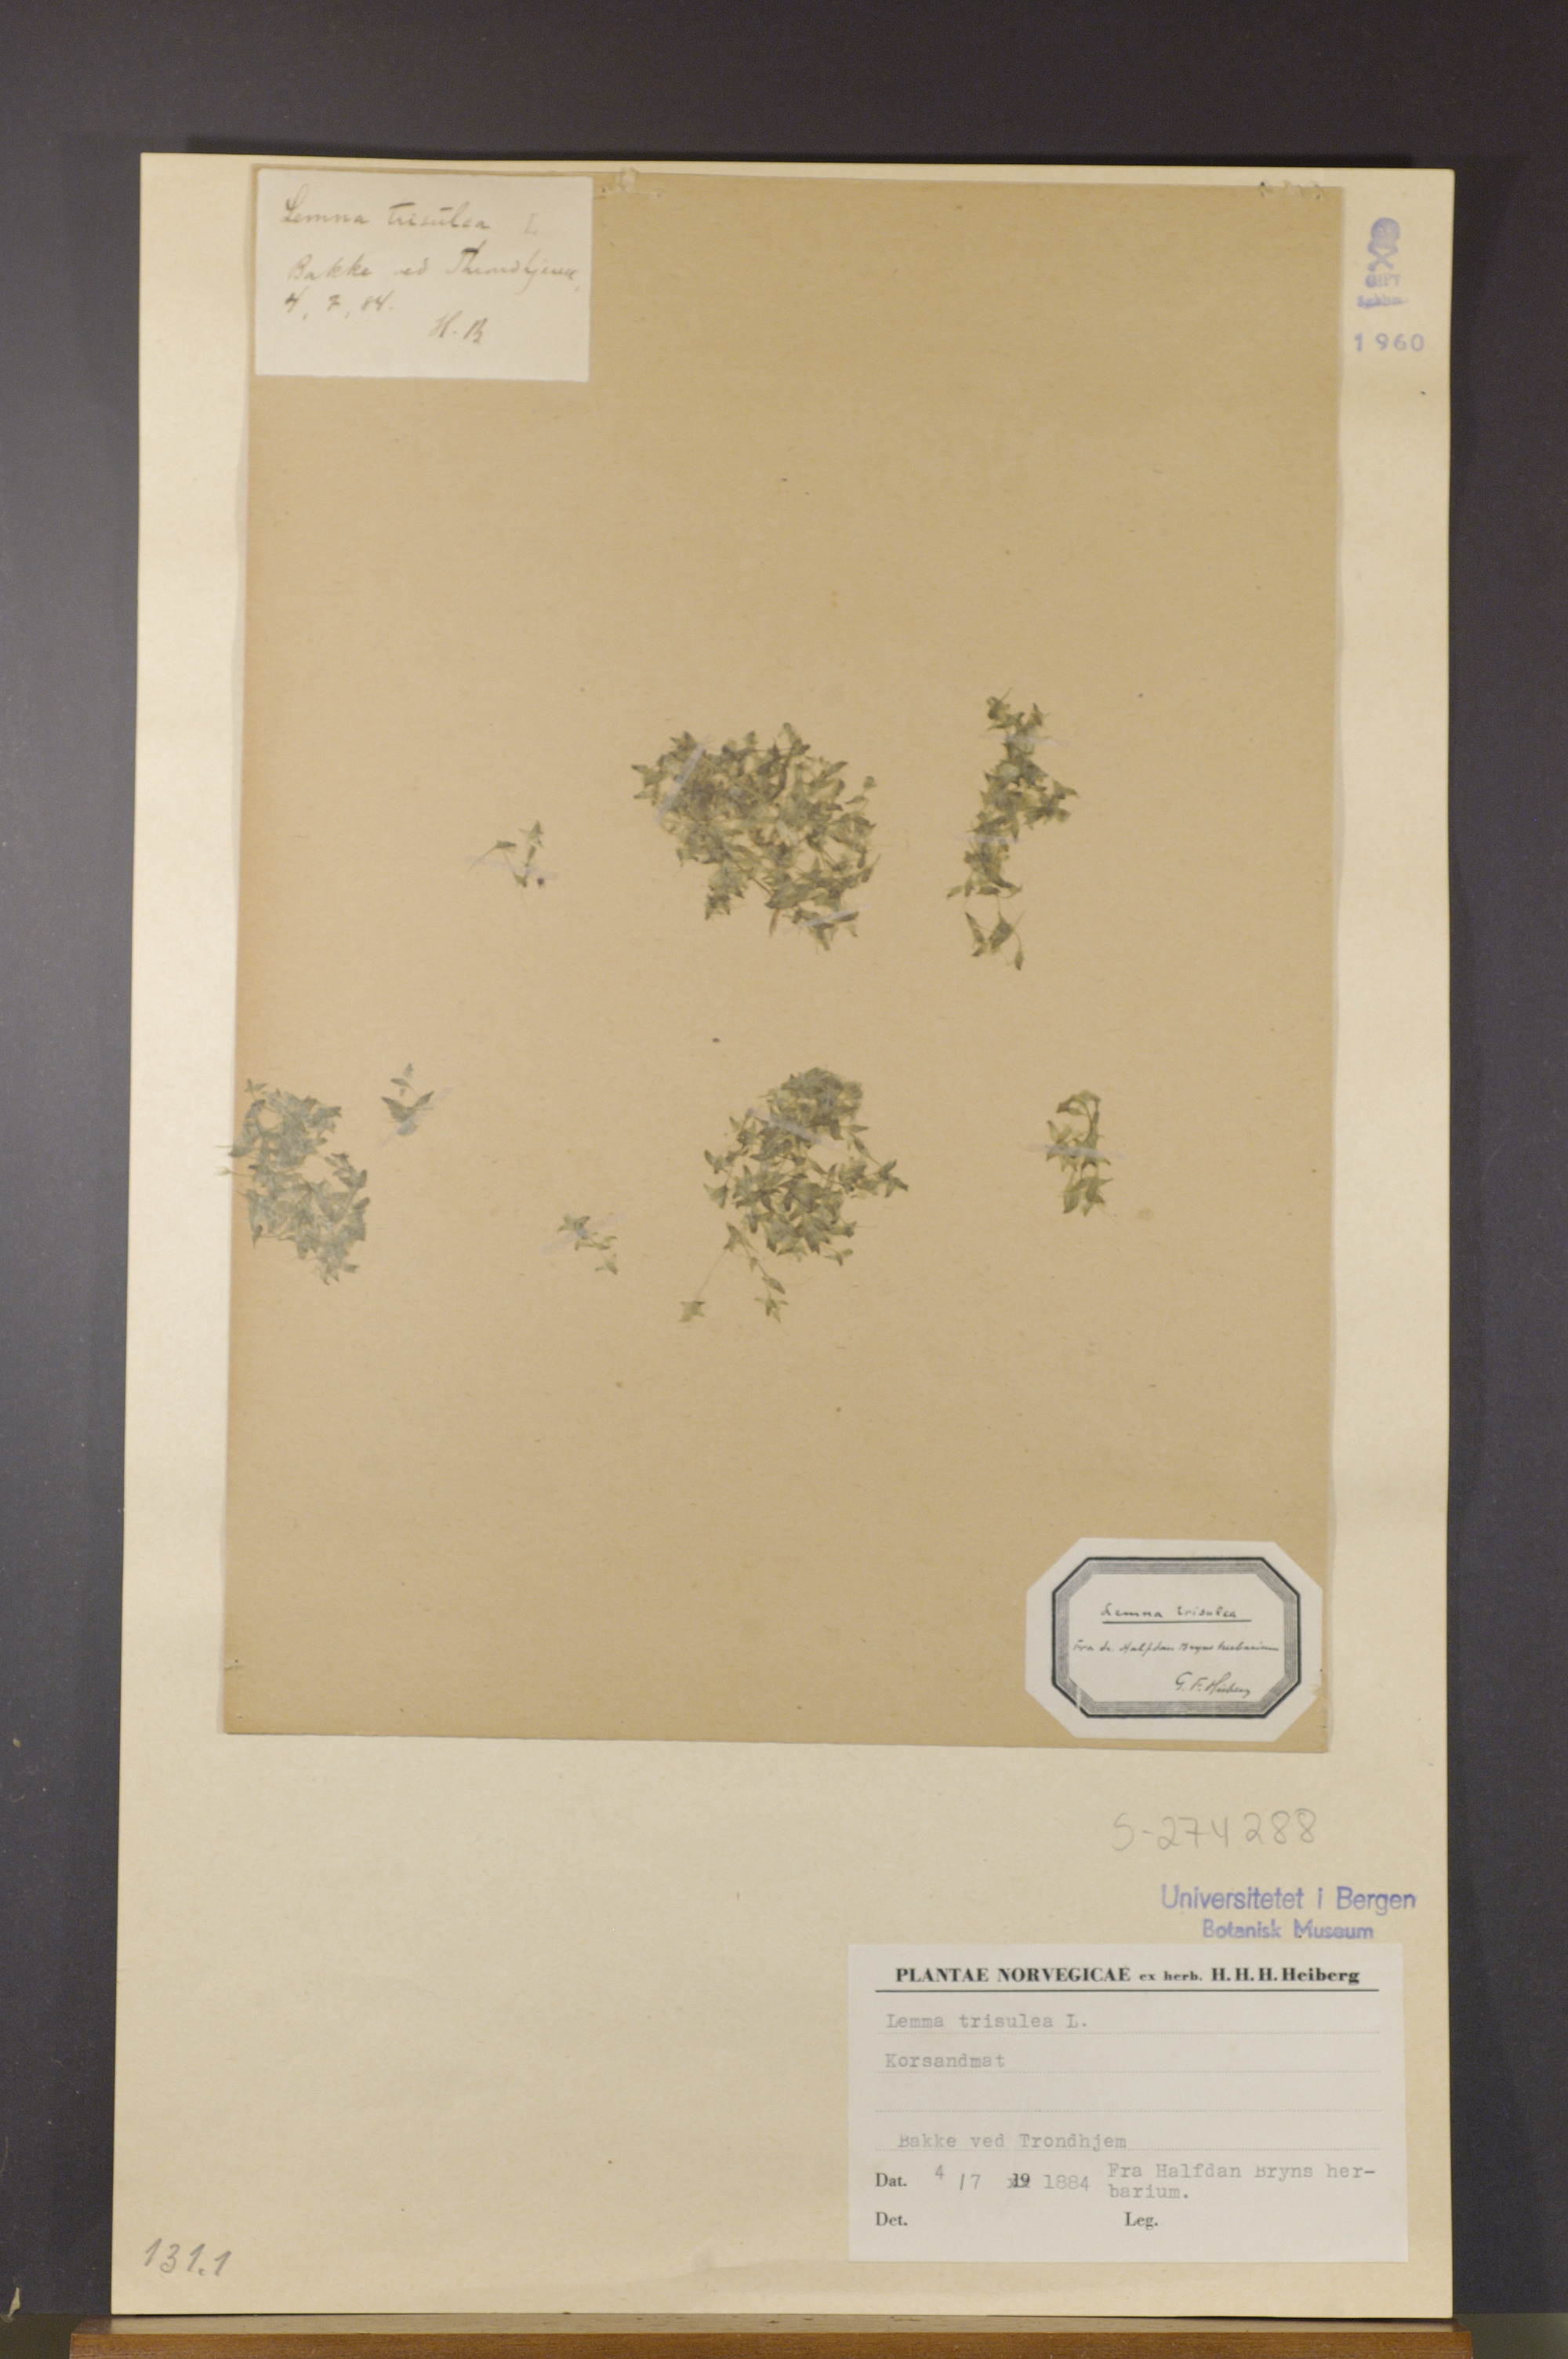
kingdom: Plantae
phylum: Tracheophyta
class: Liliopsida
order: Alismatales
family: Araceae
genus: Lemna
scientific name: Lemna trisulca
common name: Ivy-leaved duckweed
